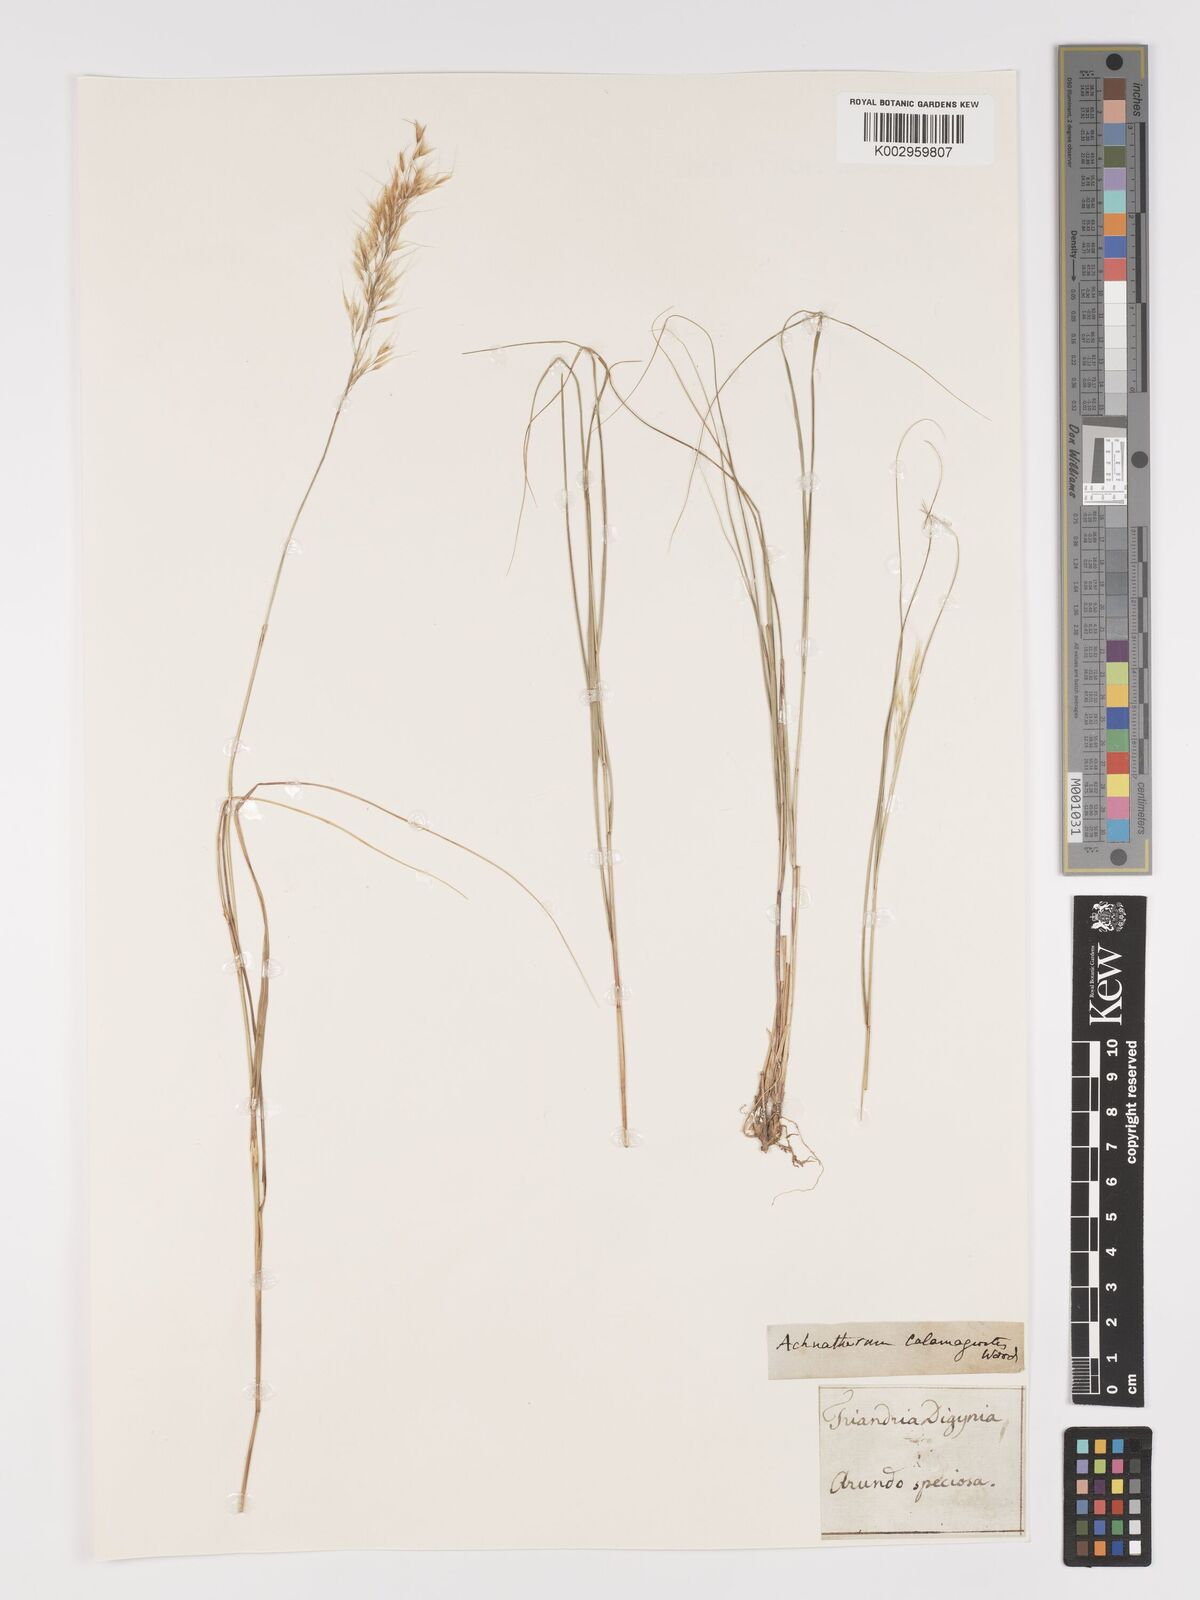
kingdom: Plantae
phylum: Tracheophyta
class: Liliopsida
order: Poales
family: Poaceae
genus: Achnatherum
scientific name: Achnatherum calamagrostis
